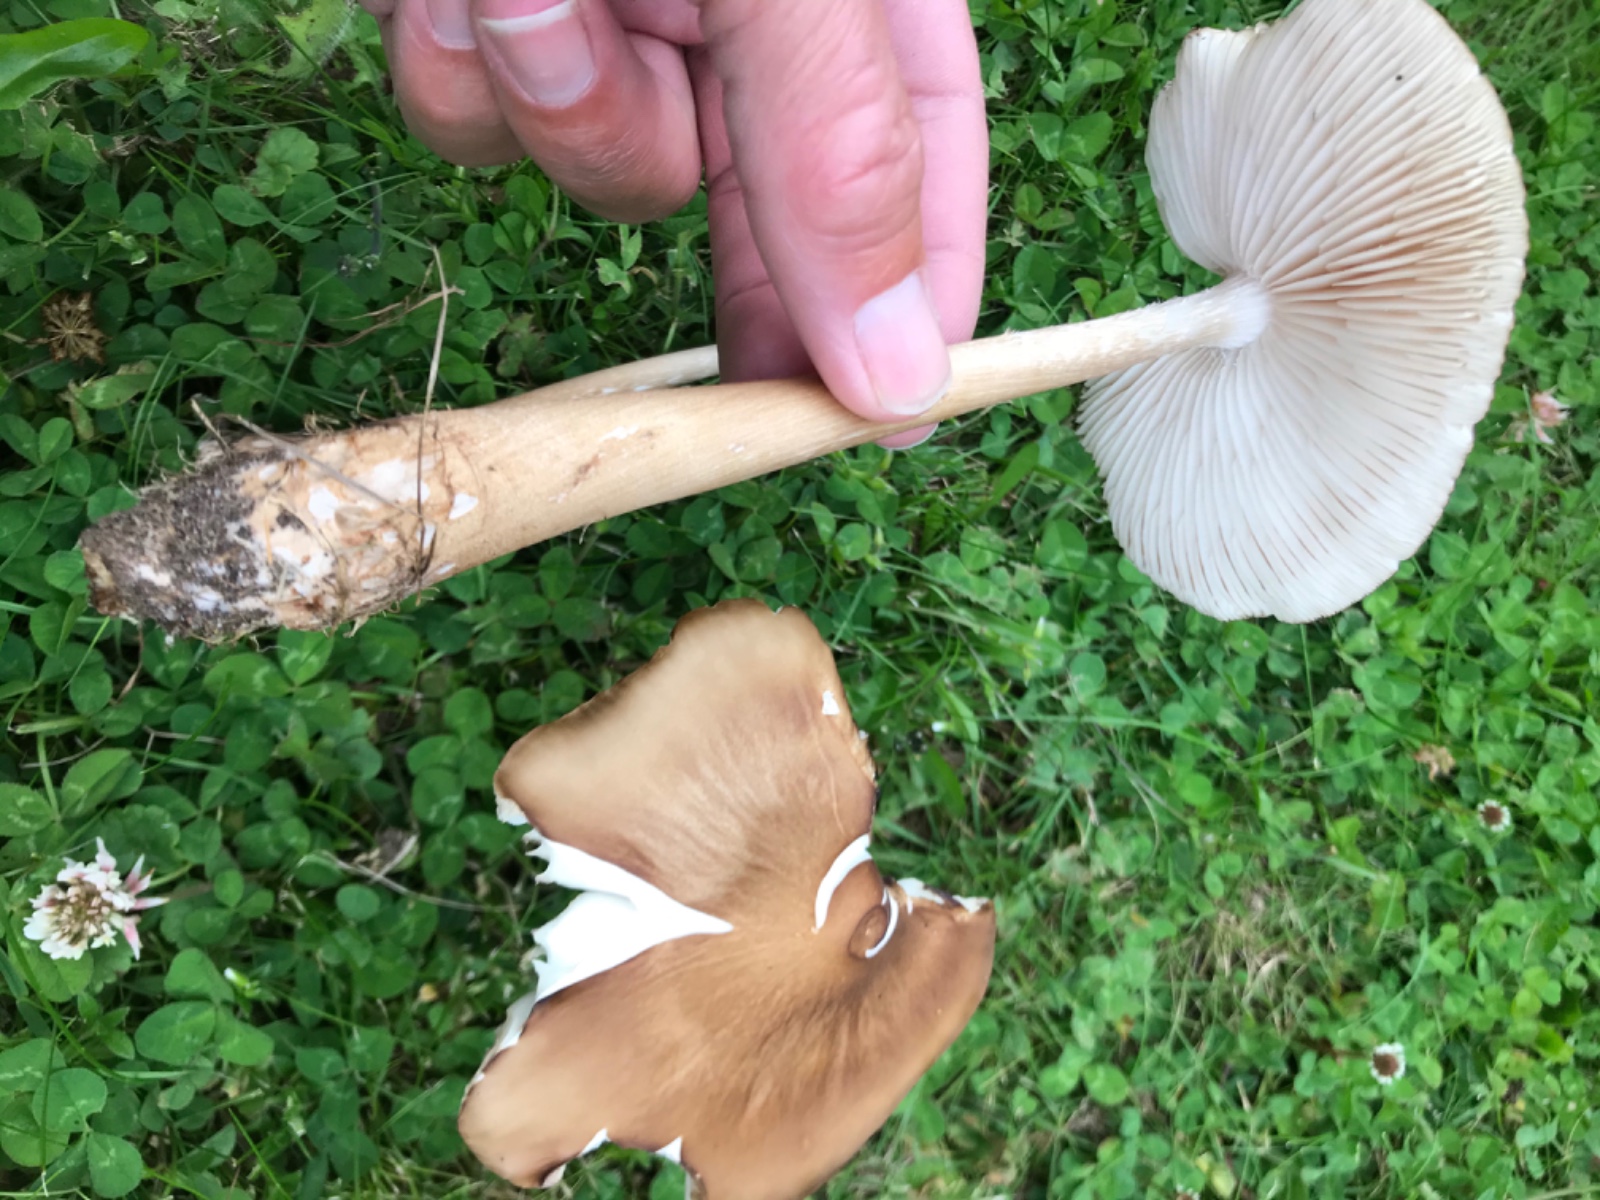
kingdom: Fungi
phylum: Basidiomycota
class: Agaricomycetes
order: Agaricales
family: Physalacriaceae
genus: Hymenopellis
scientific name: Hymenopellis radicata
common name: almindelig pælerodshat
